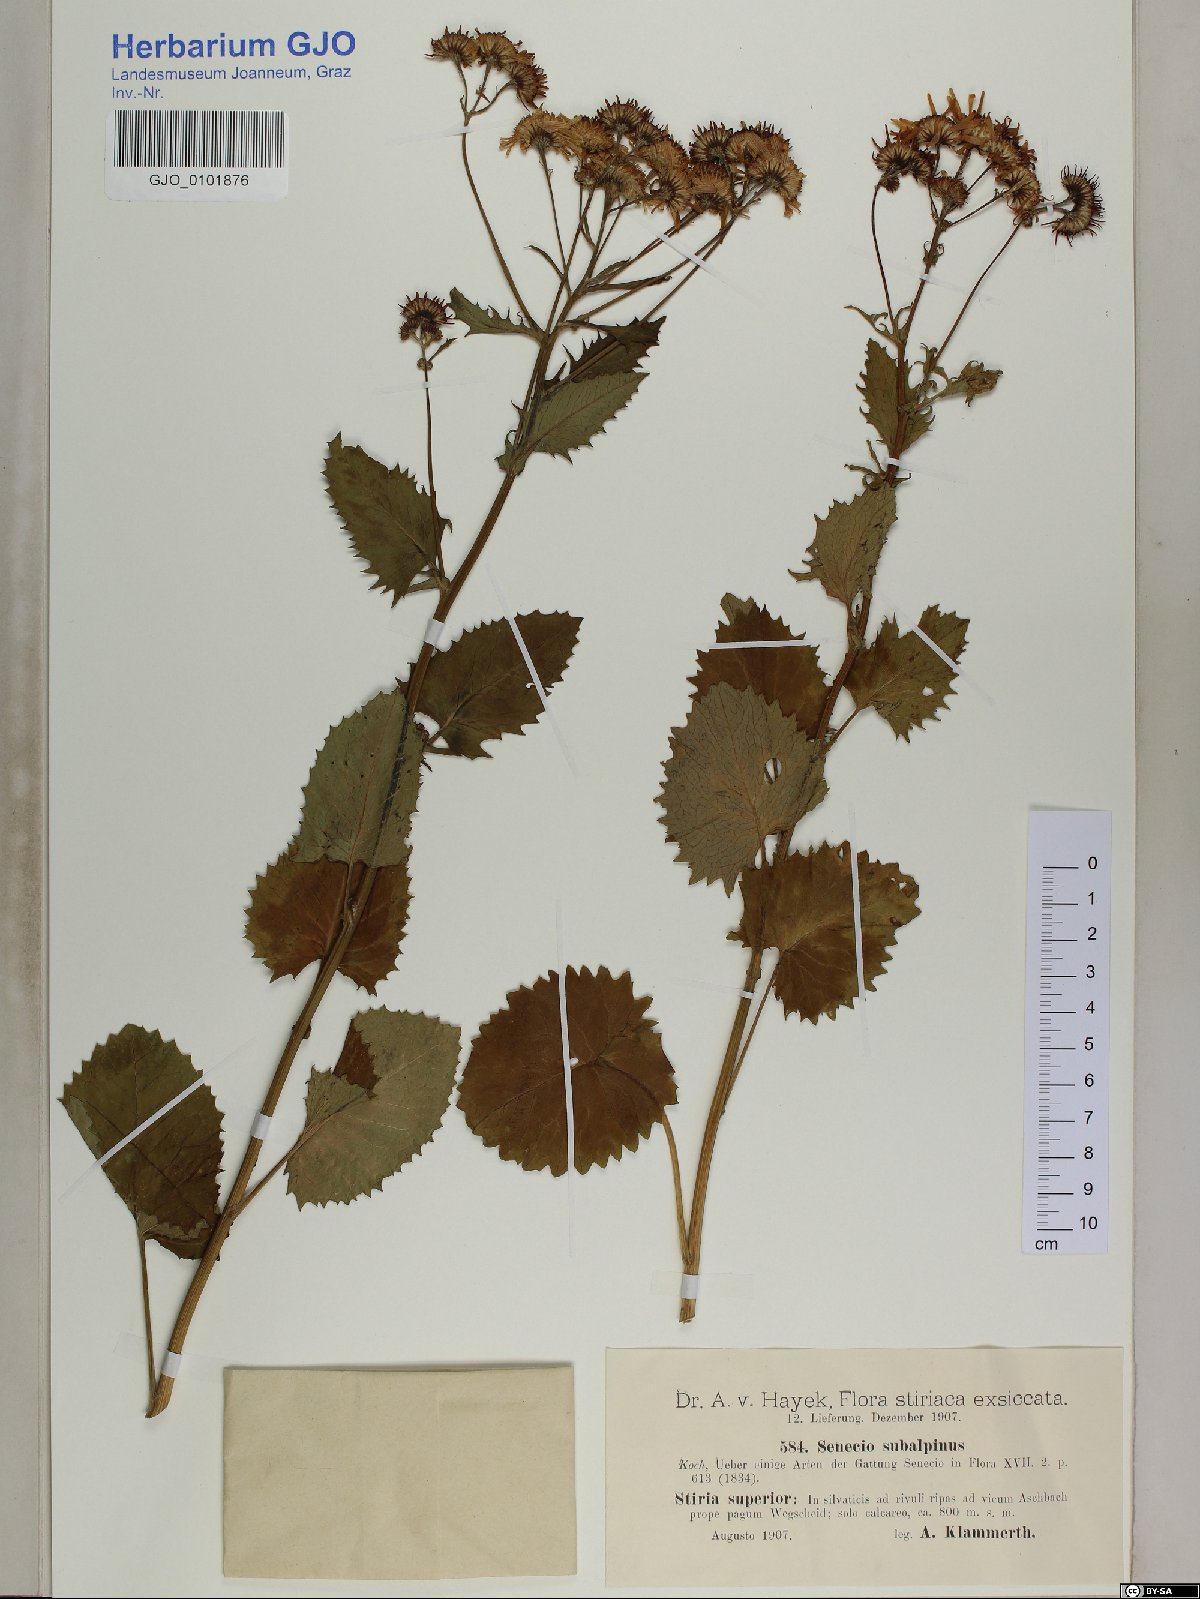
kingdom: Plantae
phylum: Tracheophyta
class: Magnoliopsida
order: Asterales
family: Asteraceae
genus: Jacobaea
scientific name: Jacobaea subalpina
